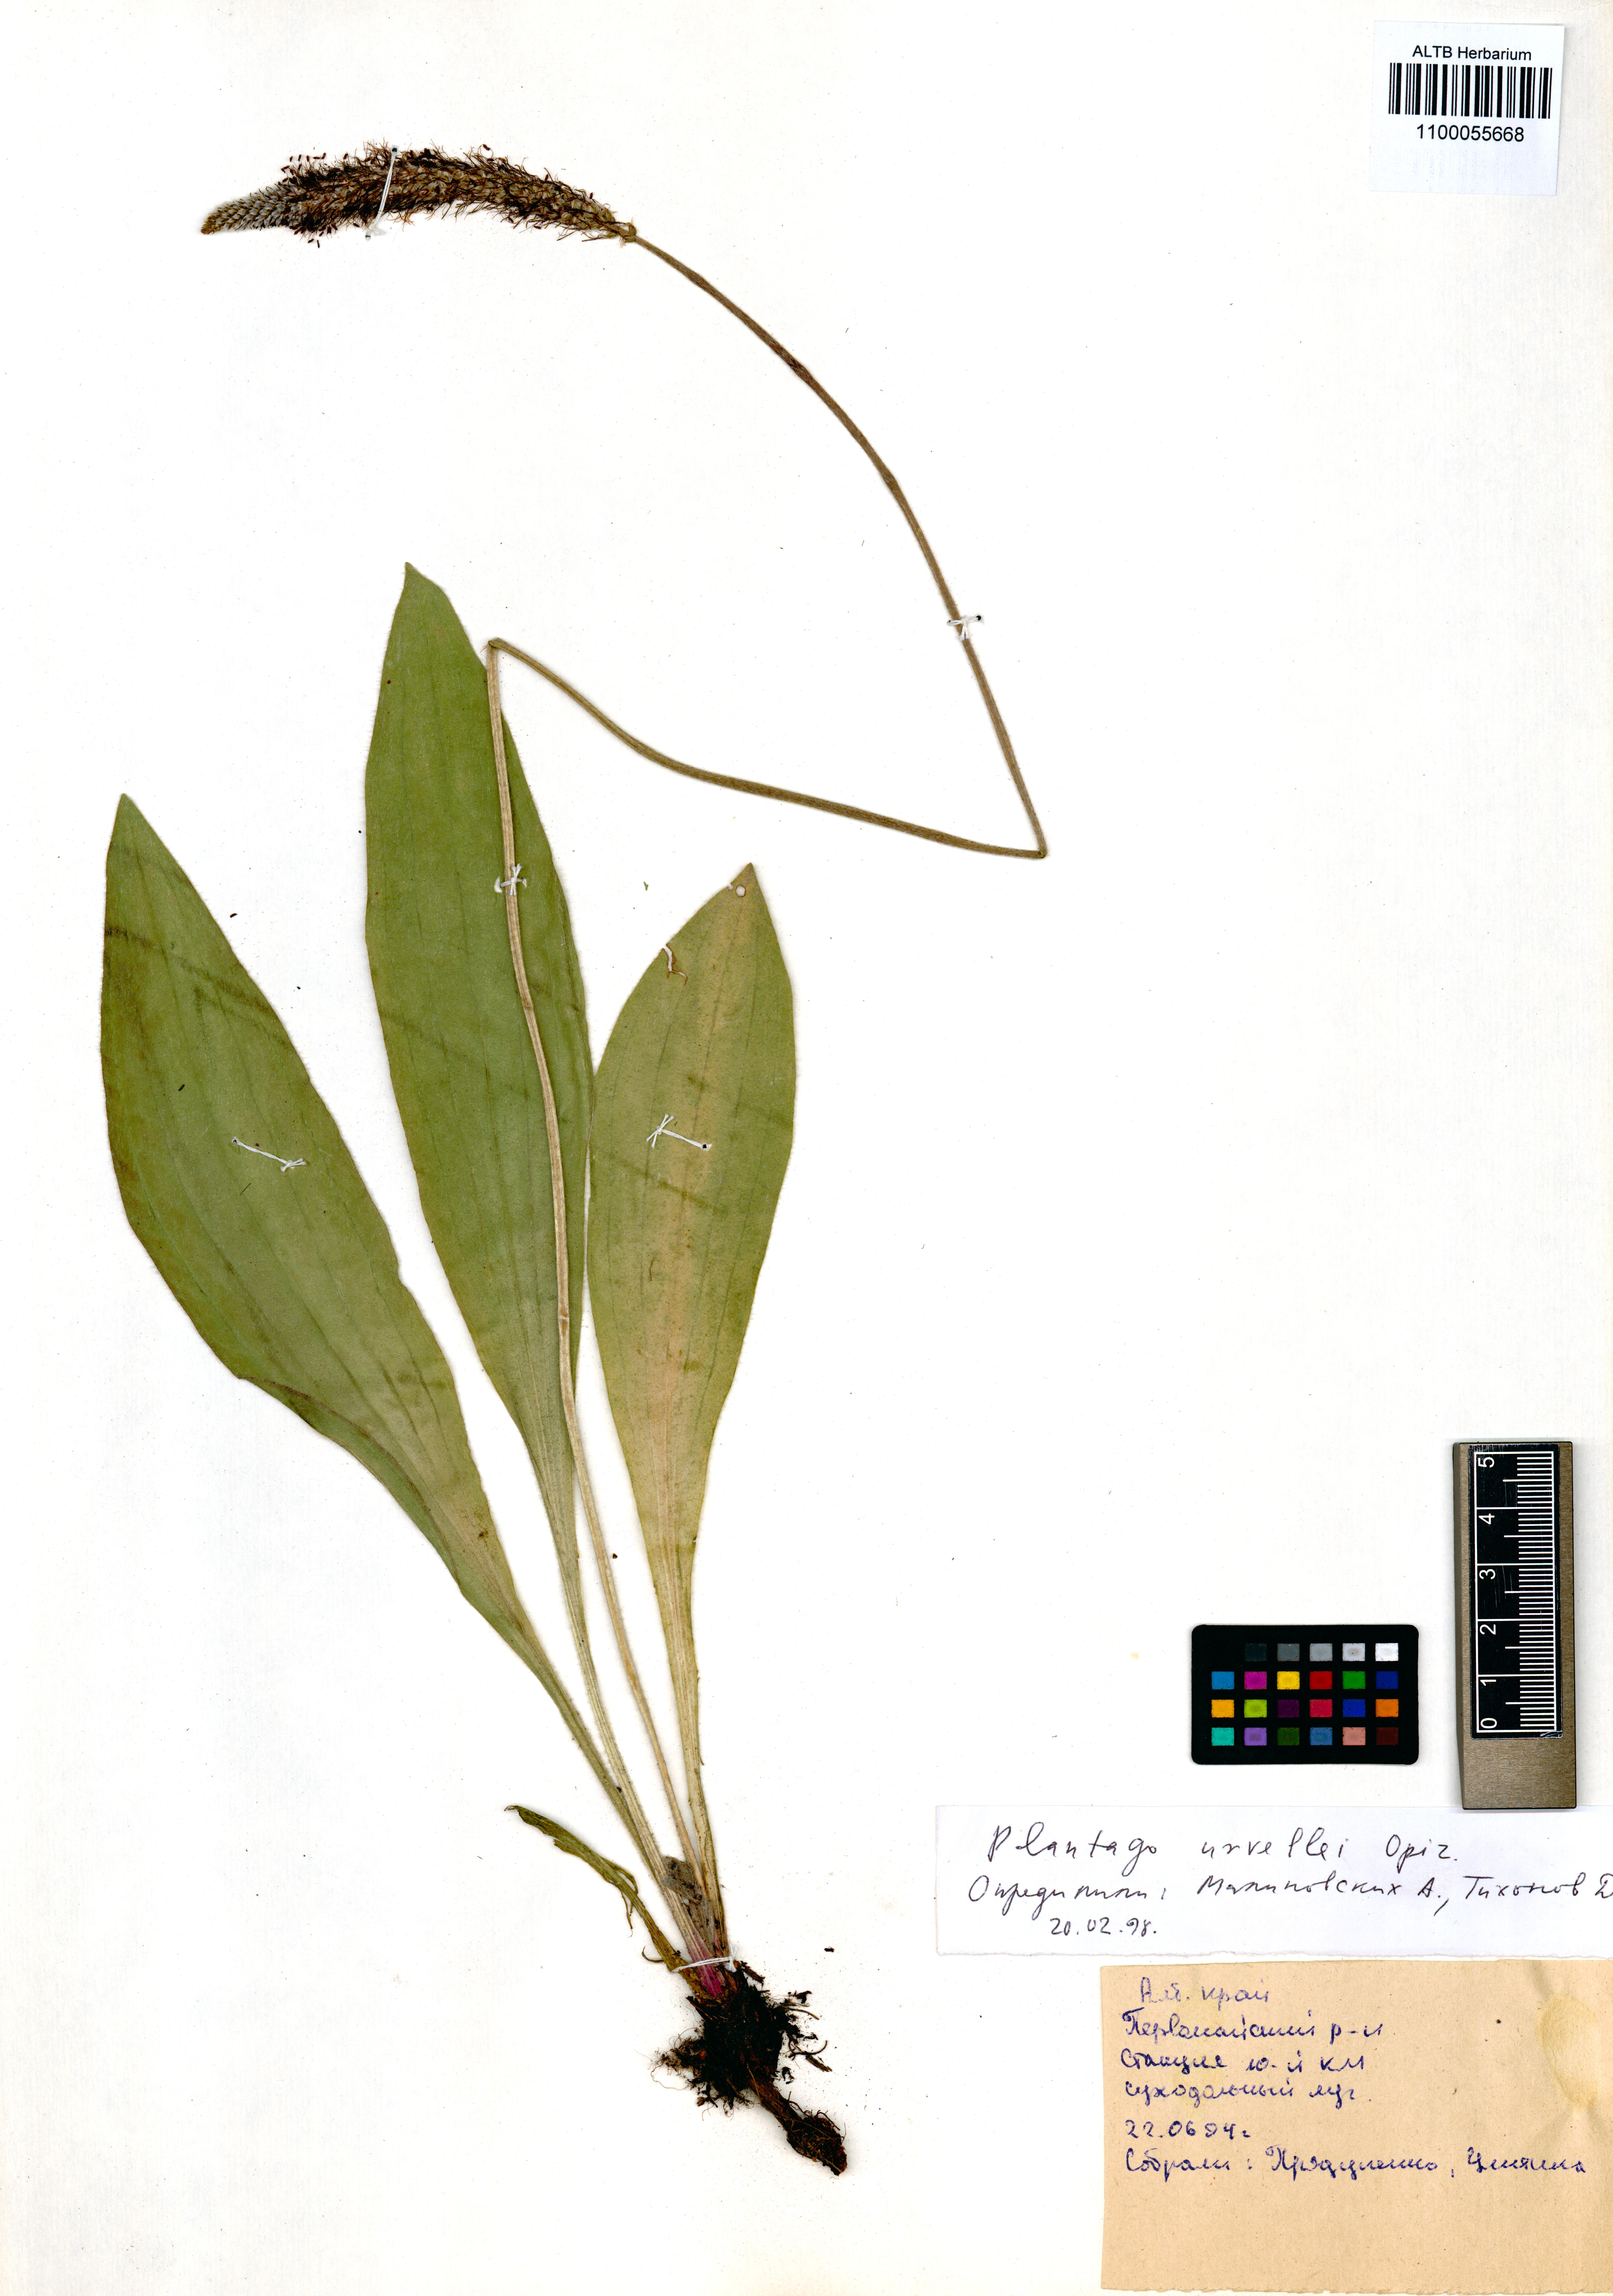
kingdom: Plantae
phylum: Tracheophyta
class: Magnoliopsida
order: Lamiales
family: Plantaginaceae
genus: Plantago
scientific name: Plantago urvillei
